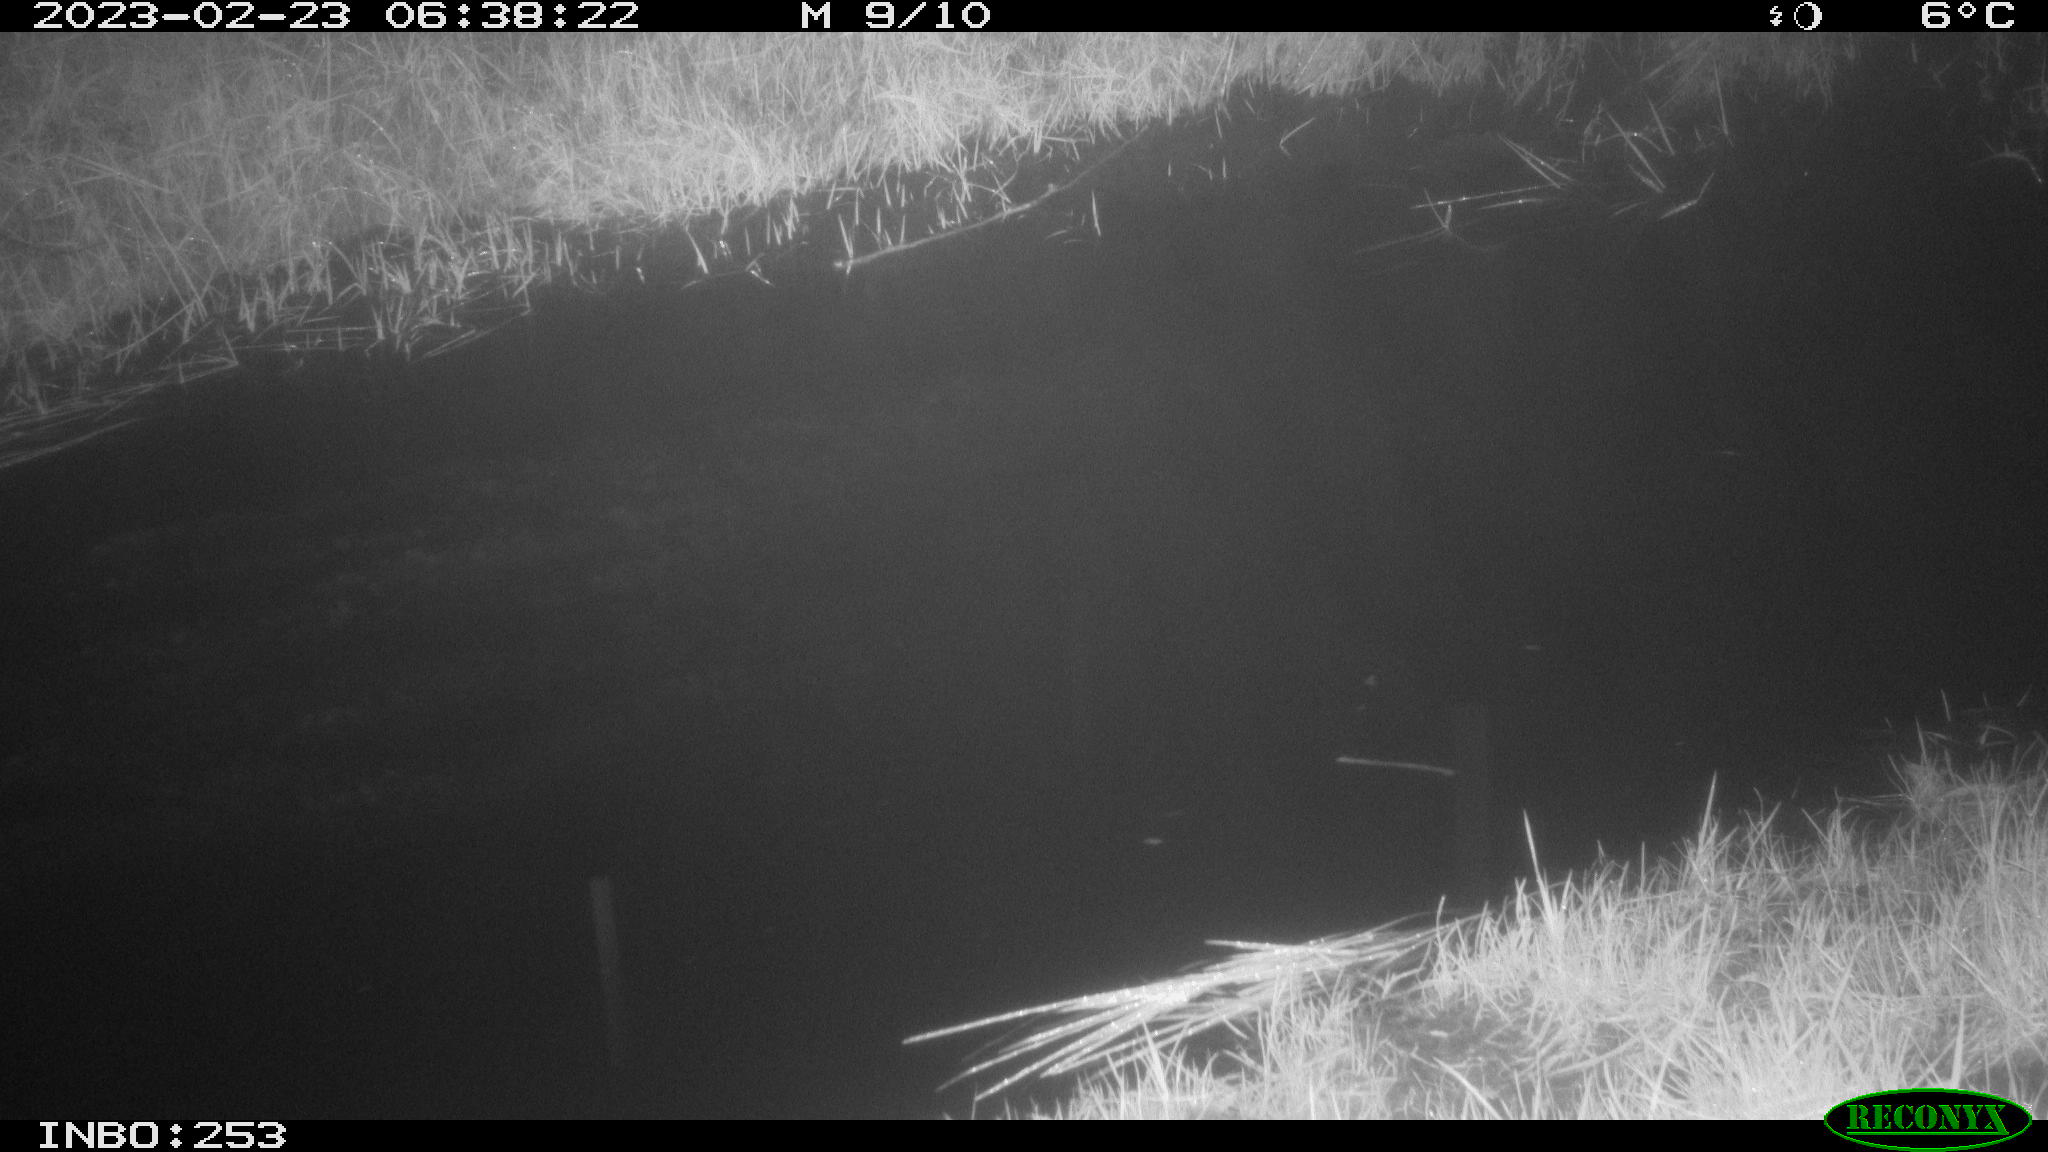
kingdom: Animalia
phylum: Chordata
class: Aves
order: Anseriformes
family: Anatidae
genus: Anas
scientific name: Anas
